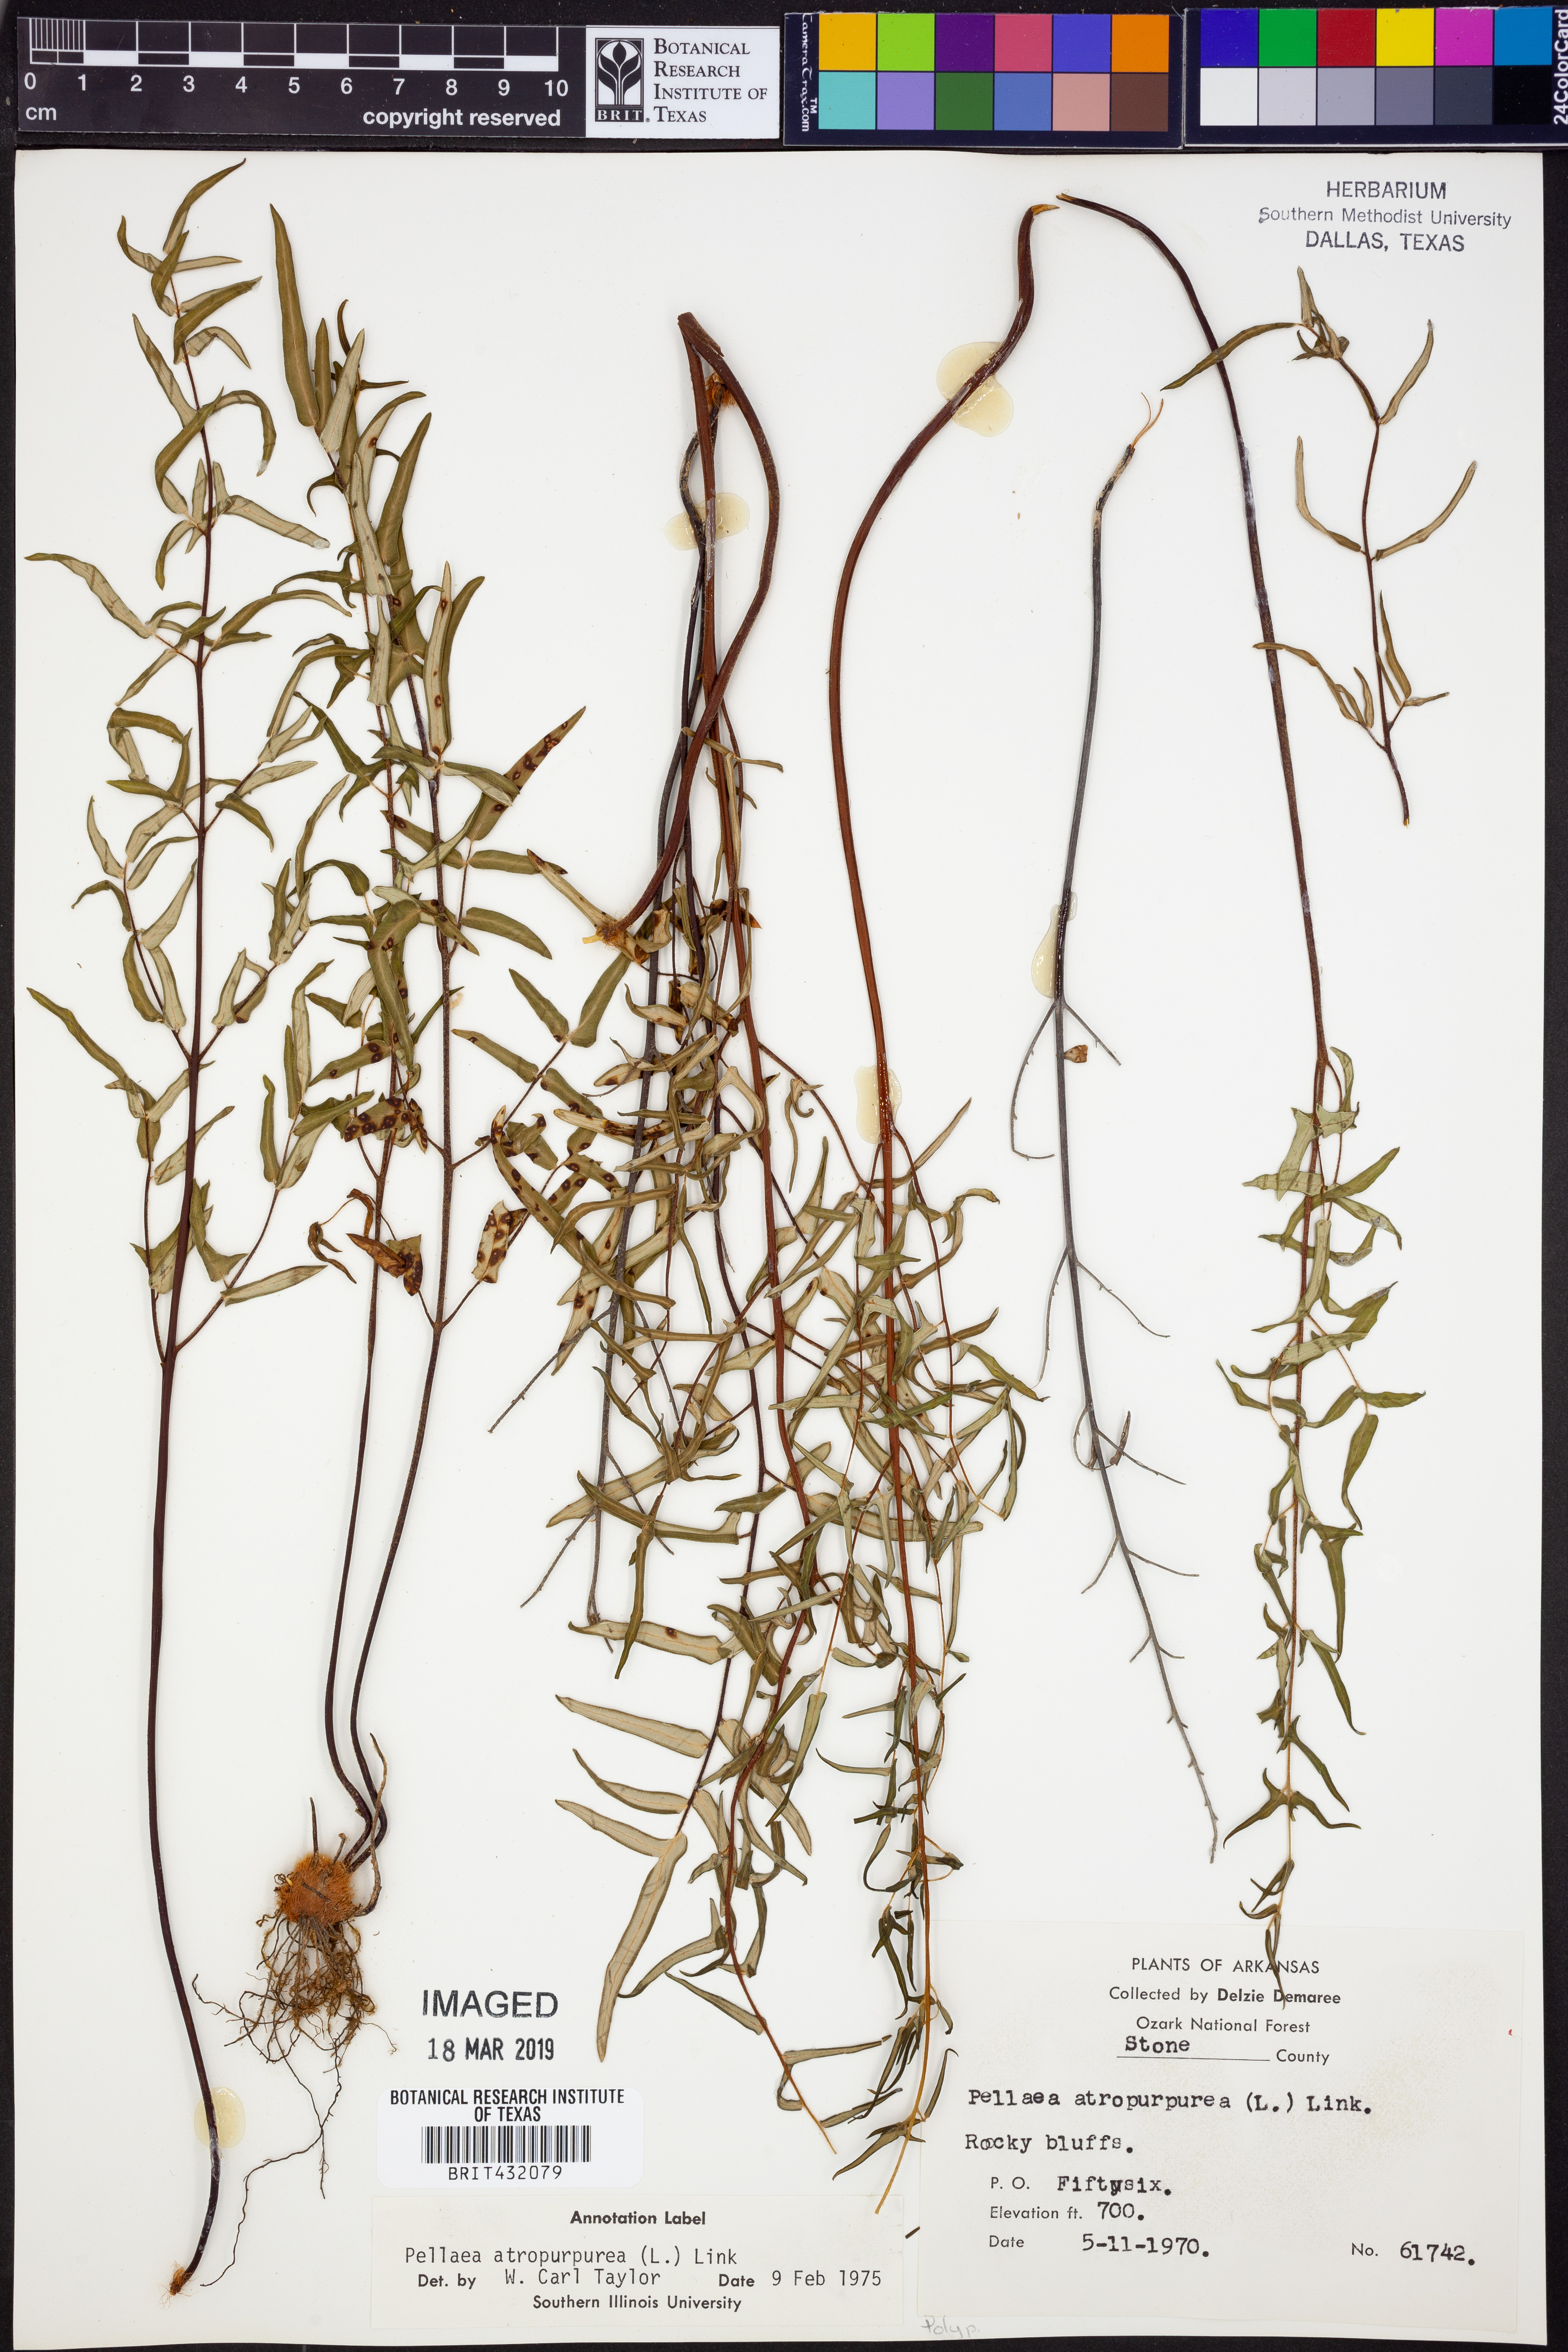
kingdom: Plantae
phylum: Tracheophyta
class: Polypodiopsida
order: Polypodiales
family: Pteridaceae
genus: Pellaea
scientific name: Pellaea atropurpurea
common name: Hairy cliffbrake
